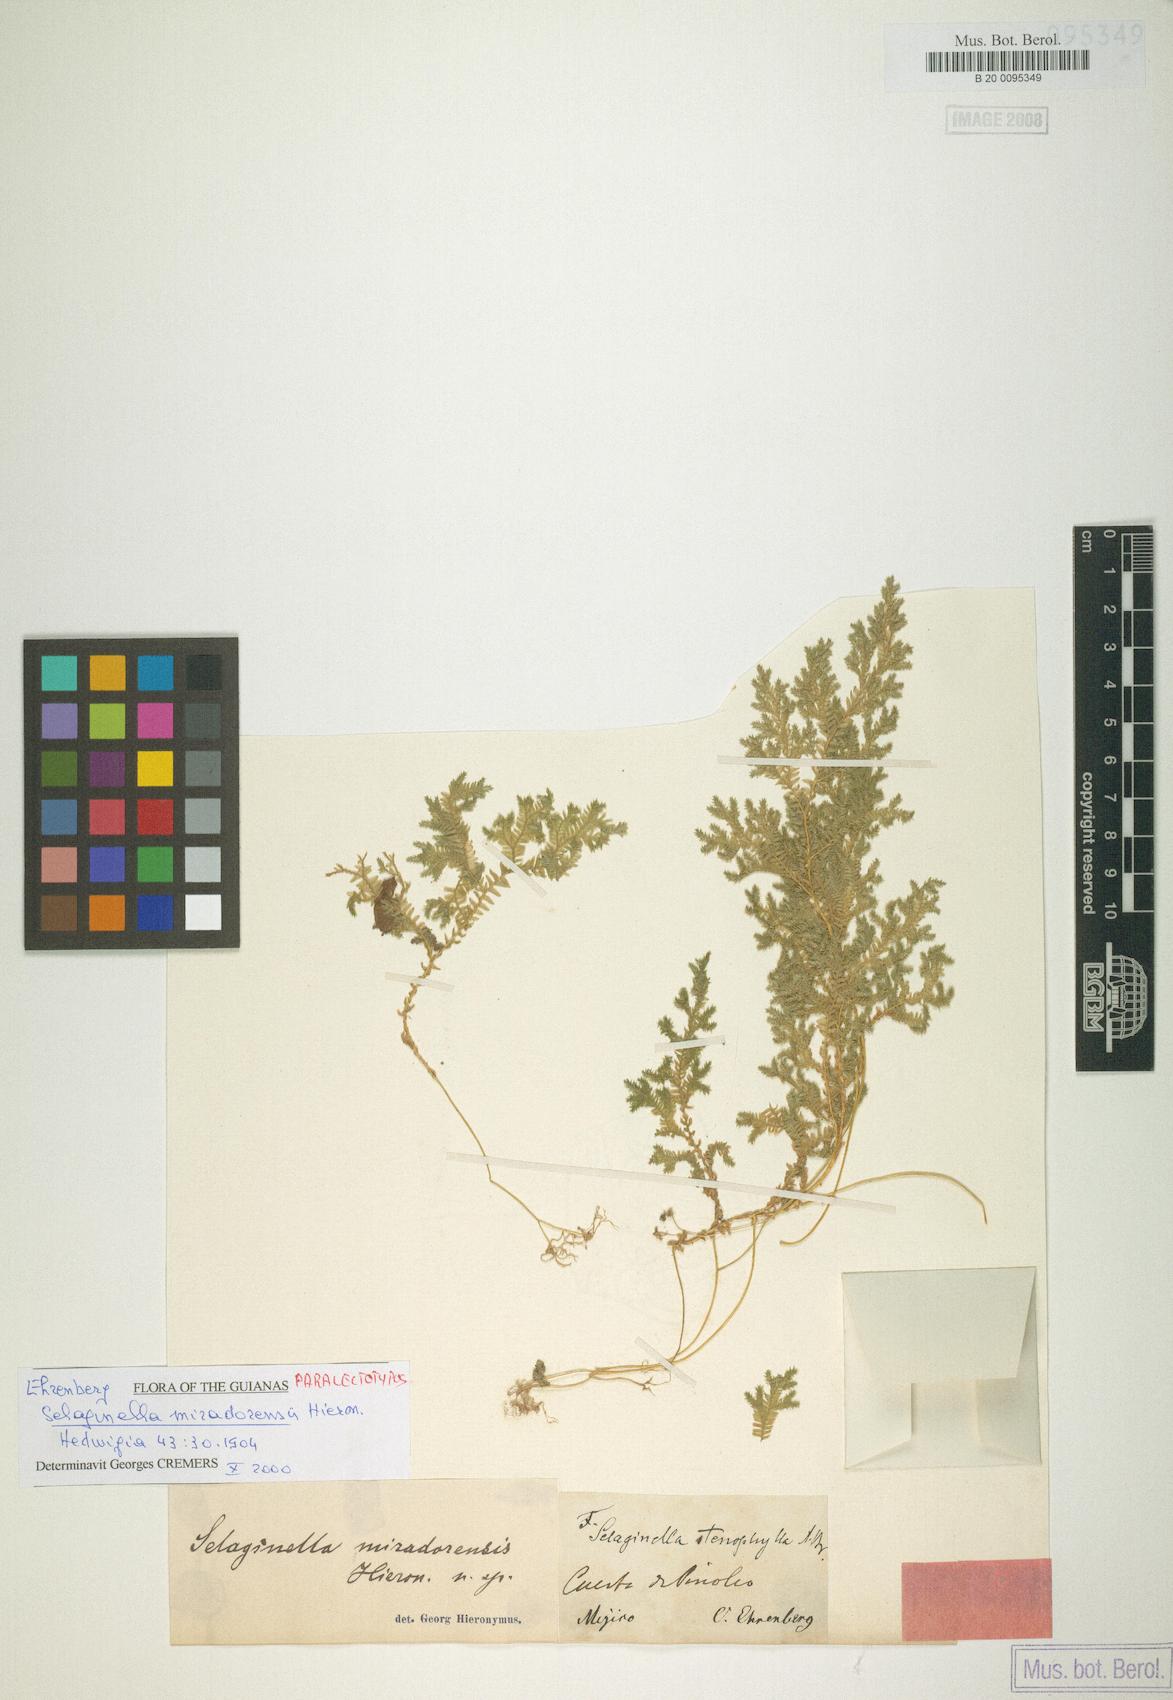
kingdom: Plantae
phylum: Tracheophyta
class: Lycopodiopsida
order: Selaginellales
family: Selaginellaceae
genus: Selaginella
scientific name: Selaginella stenophylla
